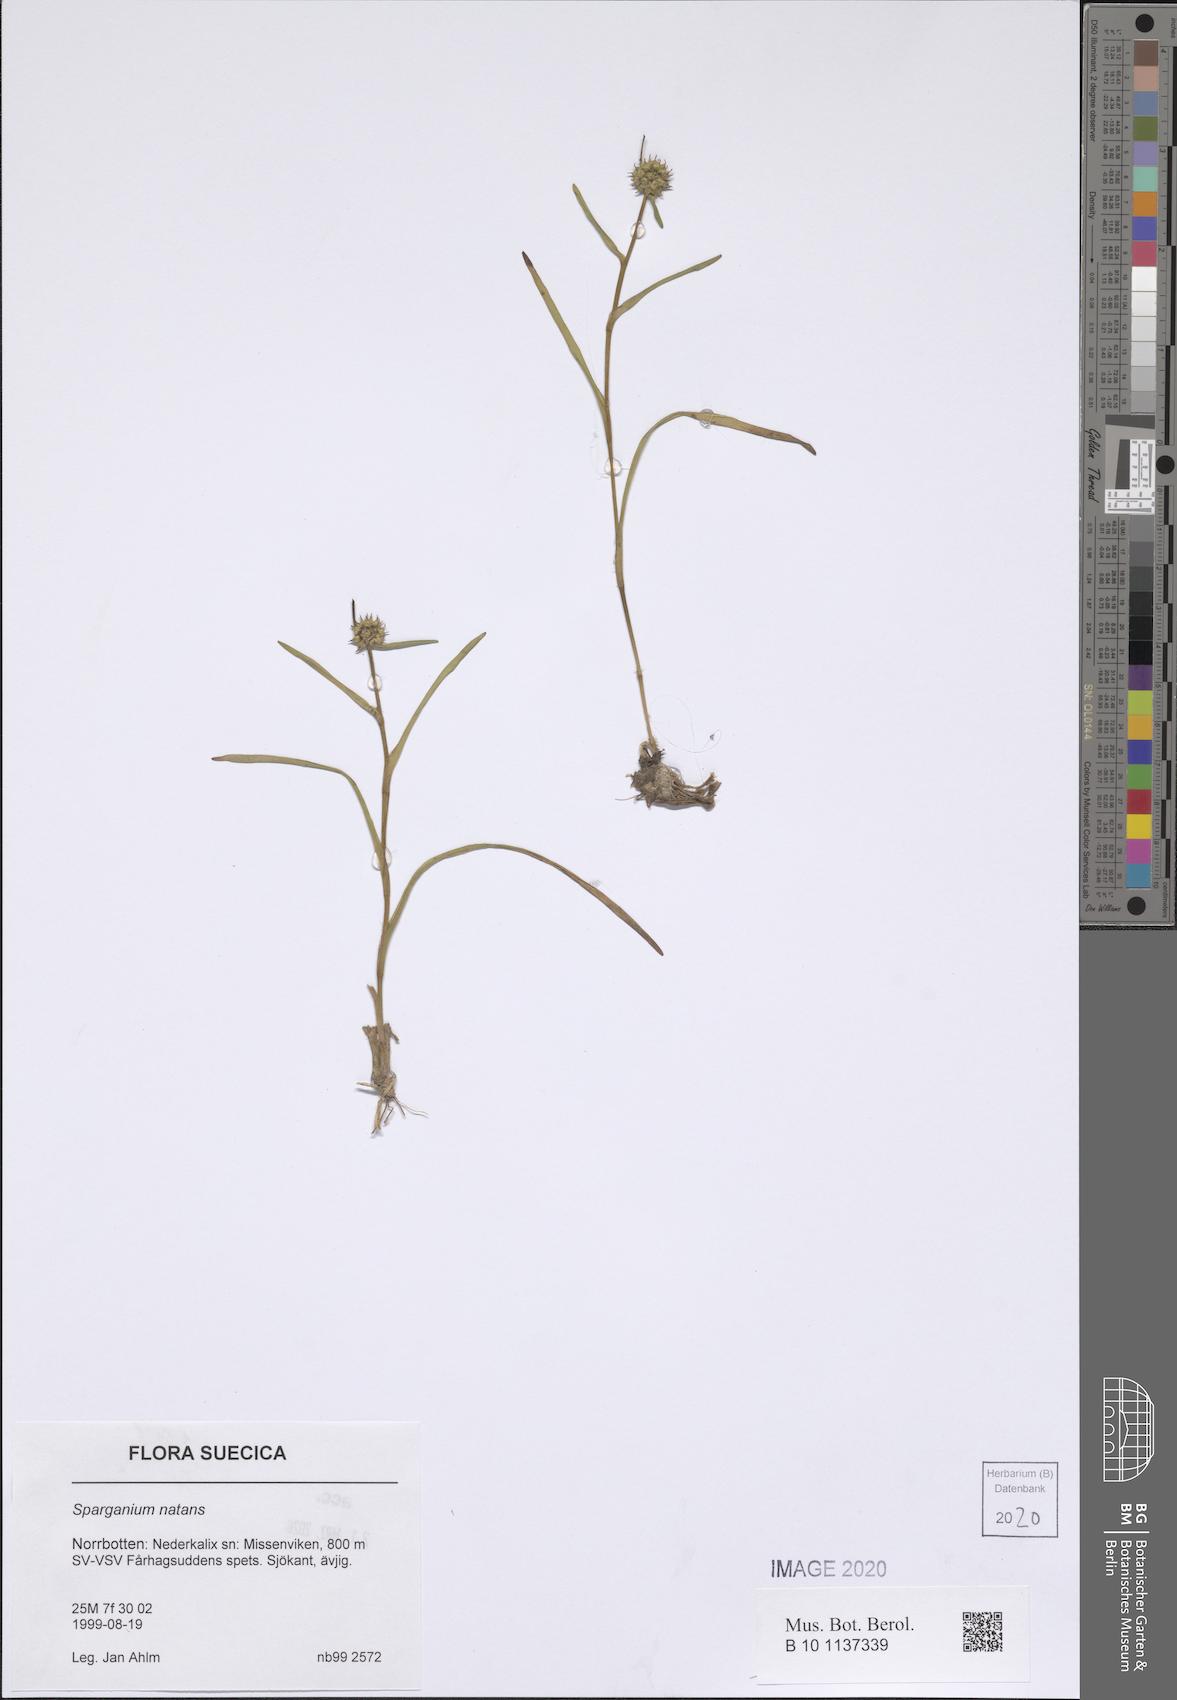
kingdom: Plantae
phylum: Tracheophyta
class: Liliopsida
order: Poales
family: Typhaceae
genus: Sparganium
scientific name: Sparganium natans
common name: Least bur-reed
